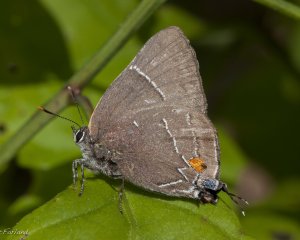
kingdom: Animalia
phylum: Arthropoda
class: Insecta
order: Lepidoptera
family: Lycaenidae
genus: Parrhasius
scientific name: Parrhasius m-album
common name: White-m Hairstreak
